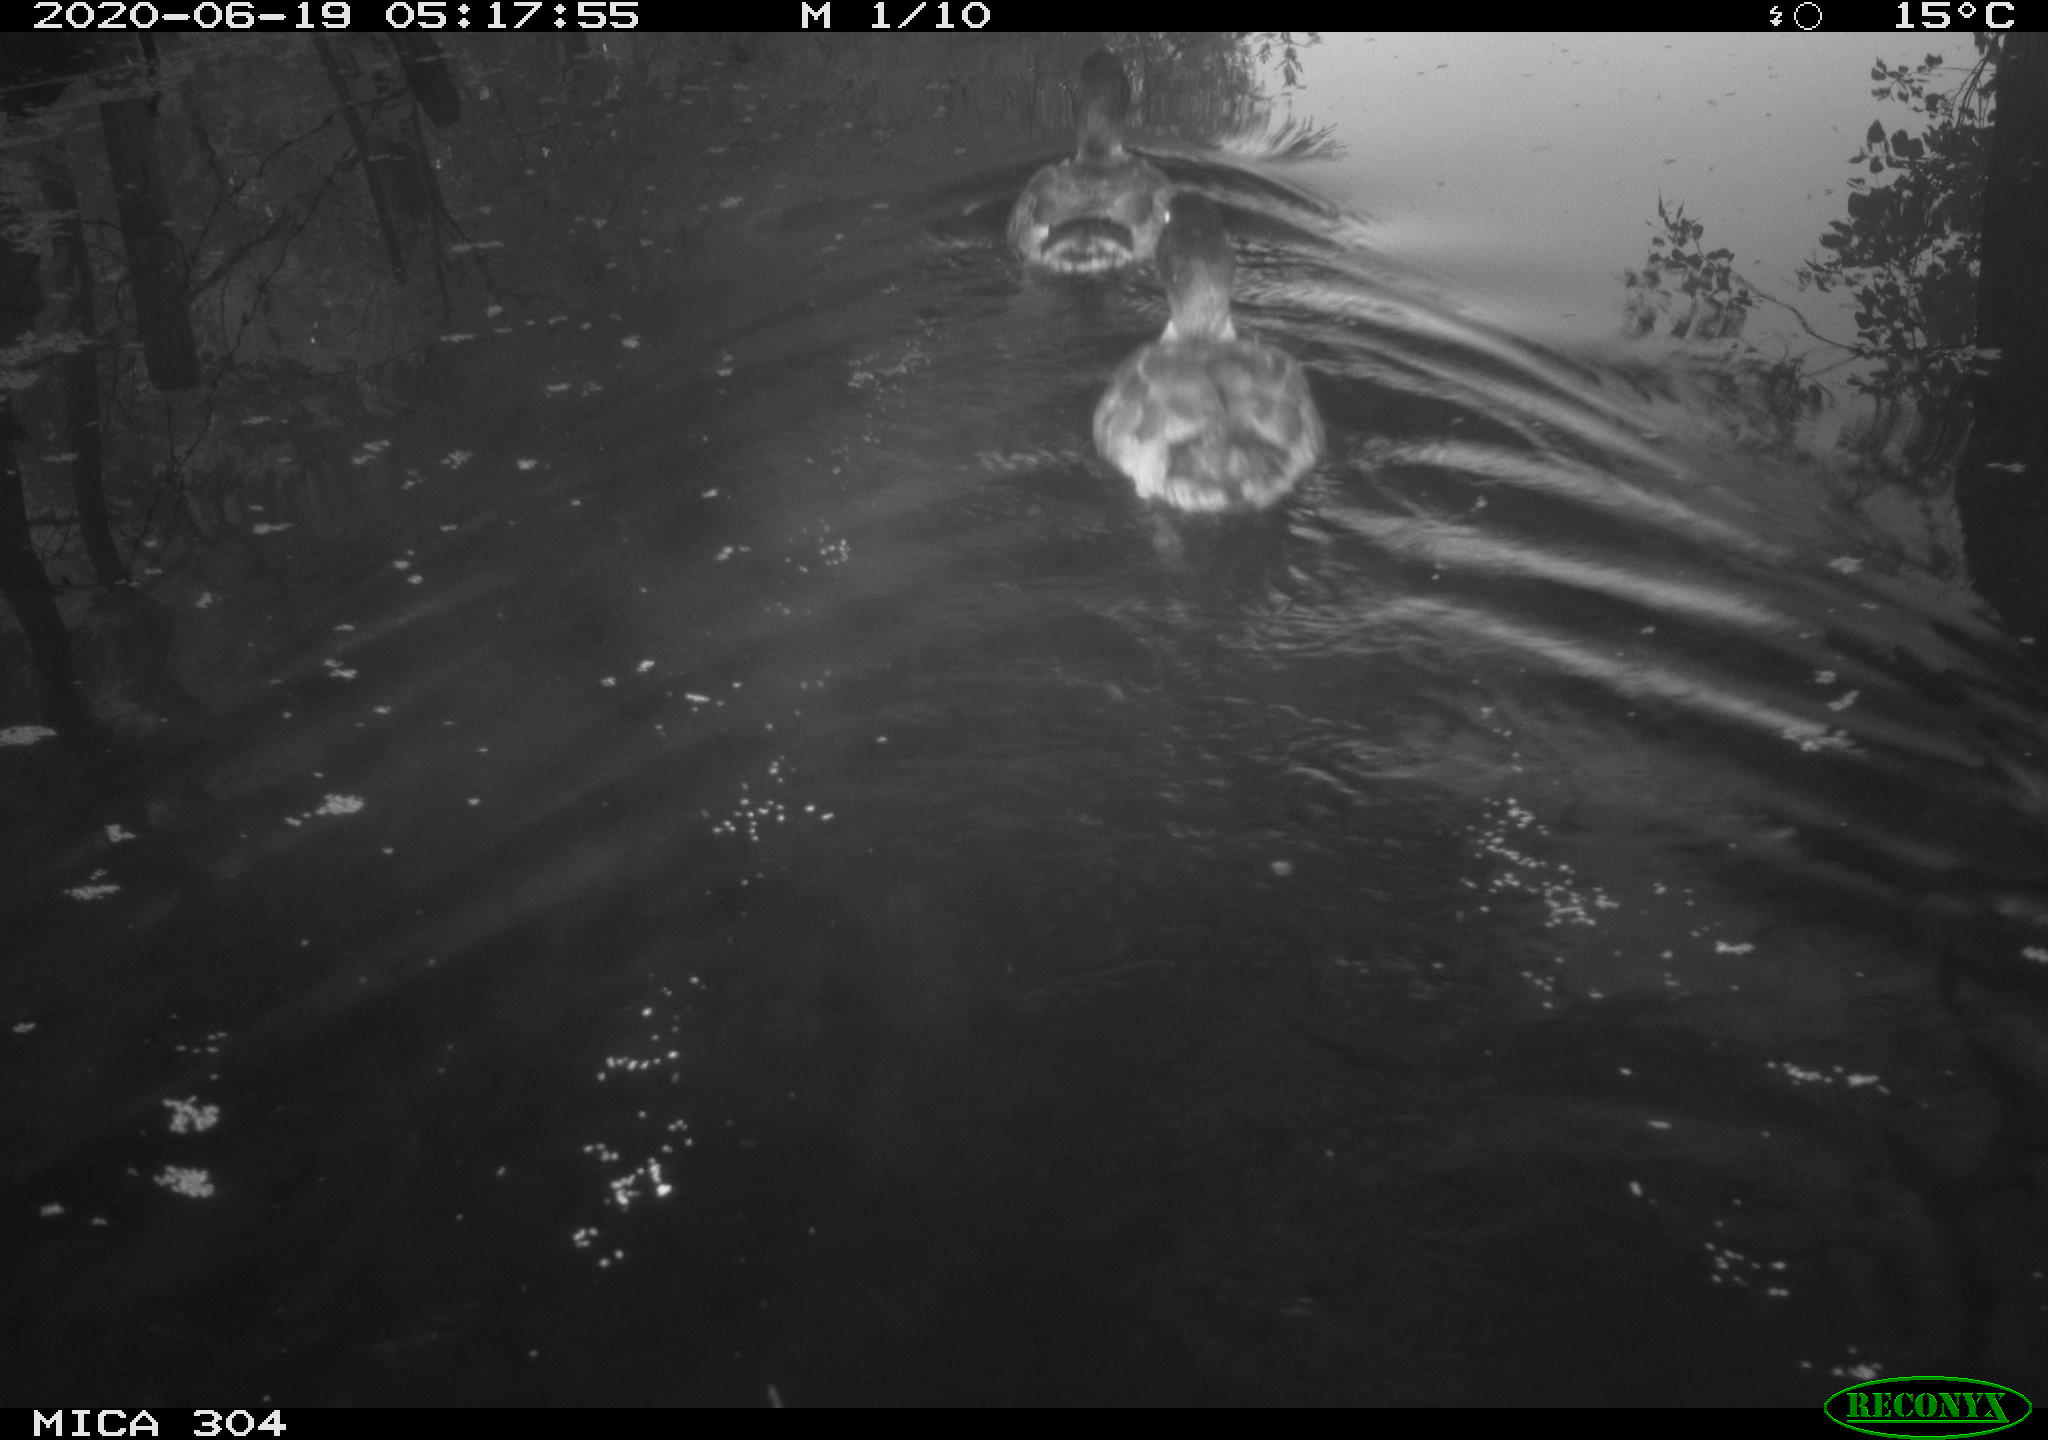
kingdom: Animalia
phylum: Chordata
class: Aves
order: Anseriformes
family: Anatidae
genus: Anas
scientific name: Anas platyrhynchos
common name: Mallard
